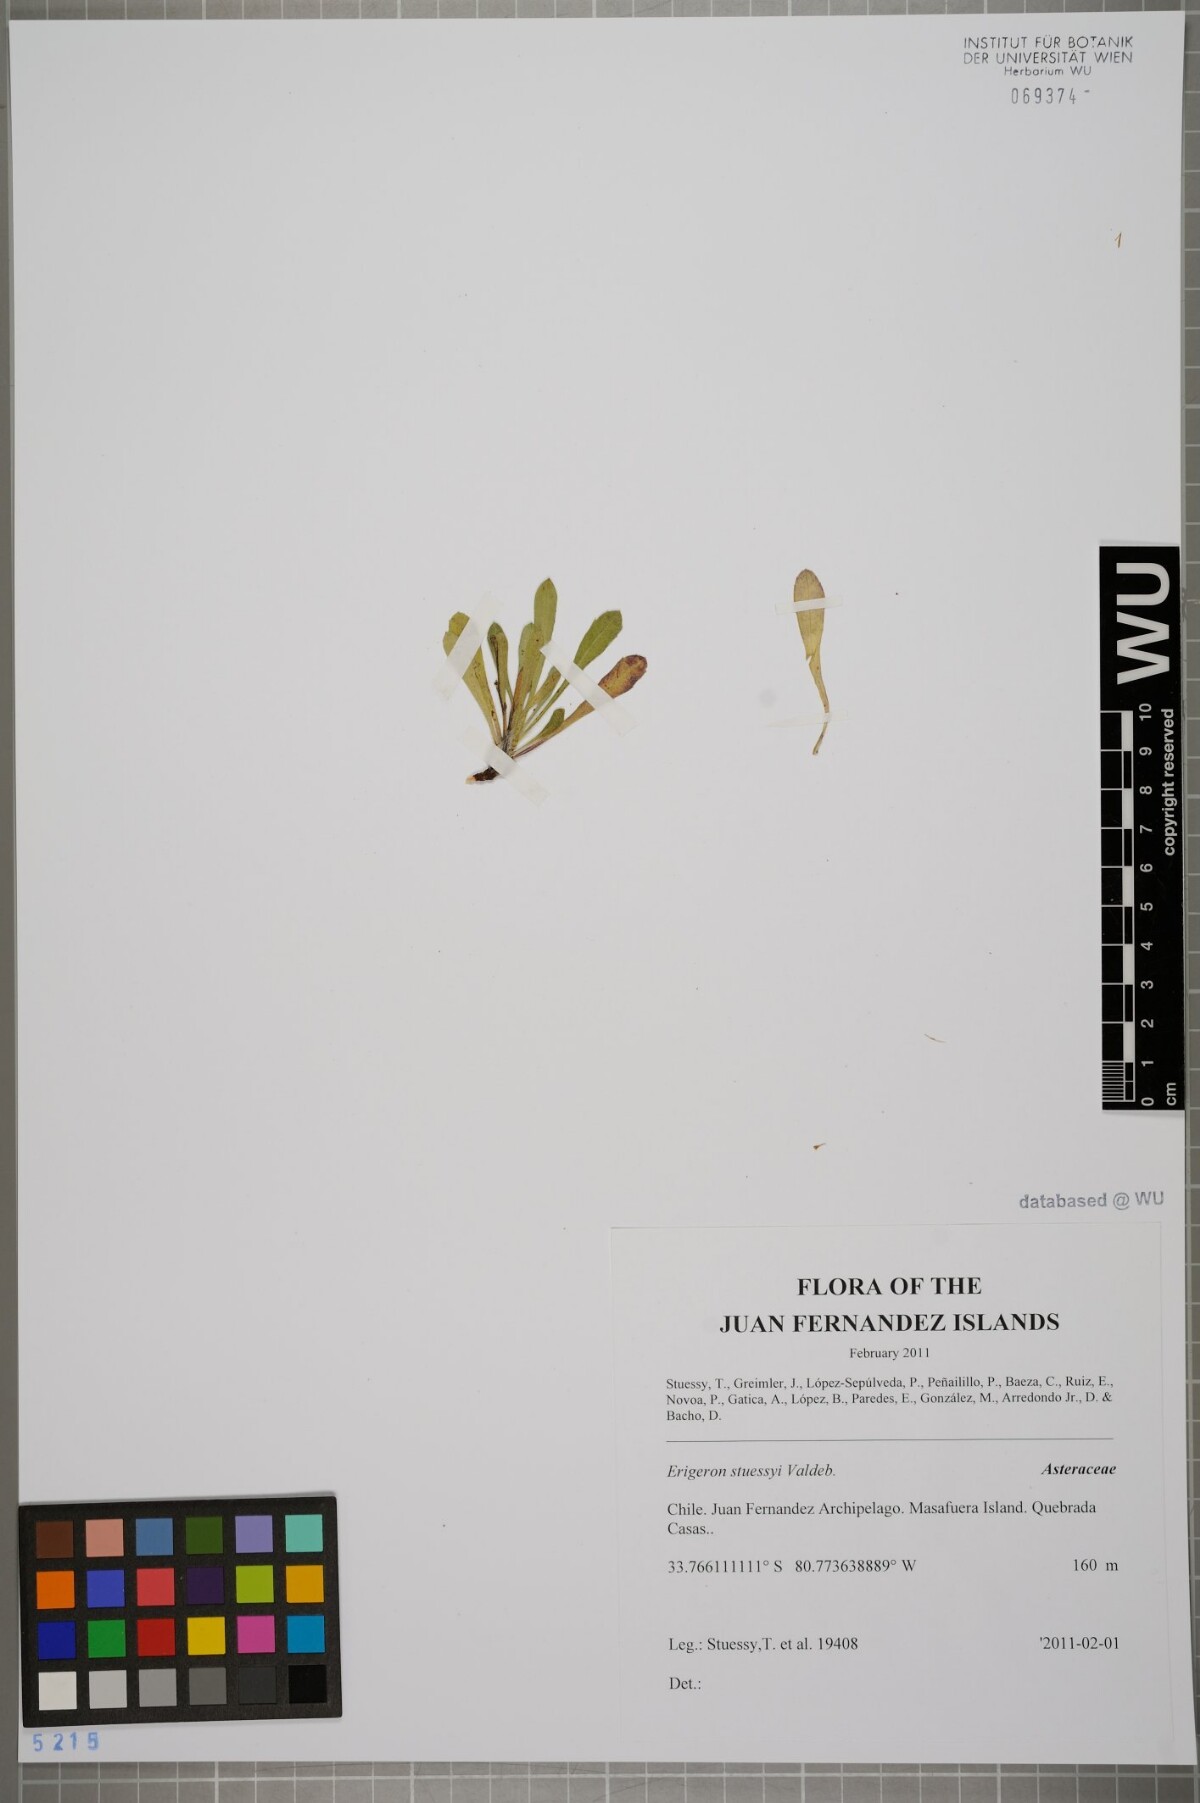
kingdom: Plantae
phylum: Tracheophyta
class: Magnoliopsida
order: Asterales
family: Asteraceae
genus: Erigeron
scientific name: Erigeron stuessyi
